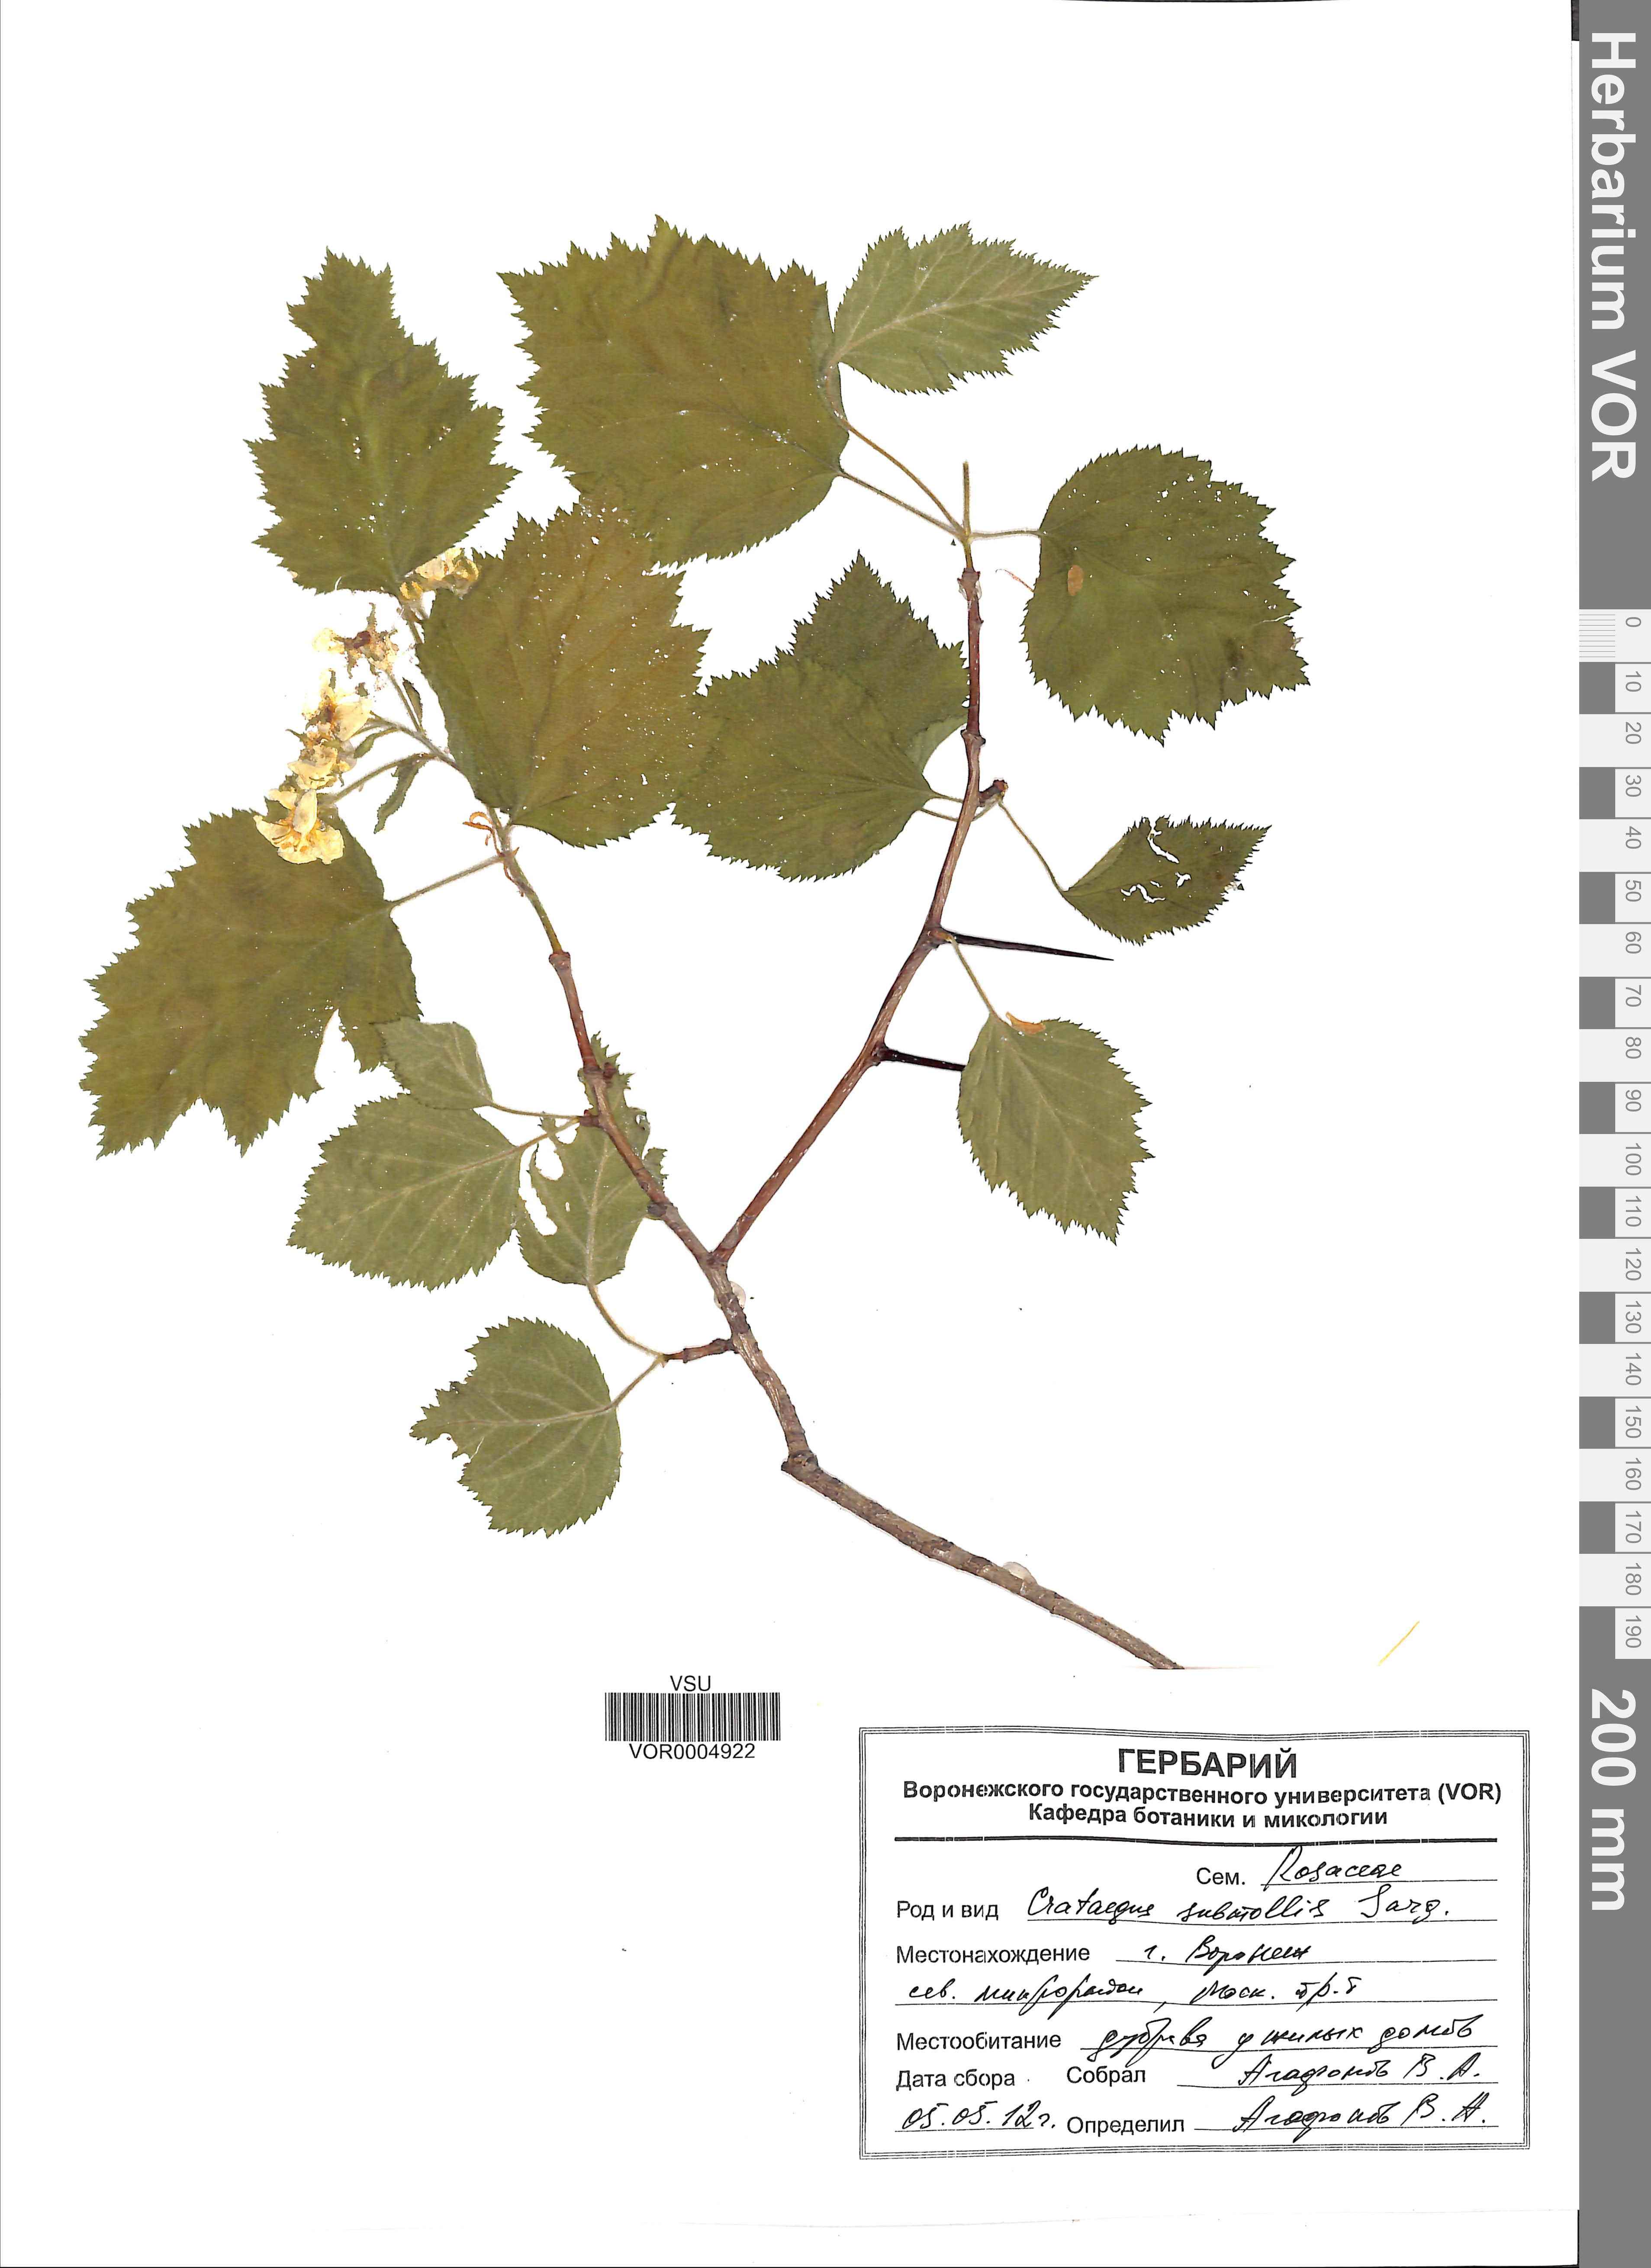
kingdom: Plantae
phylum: Tracheophyta
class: Magnoliopsida
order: Rosales
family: Rosaceae
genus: Crataegus
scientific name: Crataegus submollis
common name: Hairy cockspurthorn
